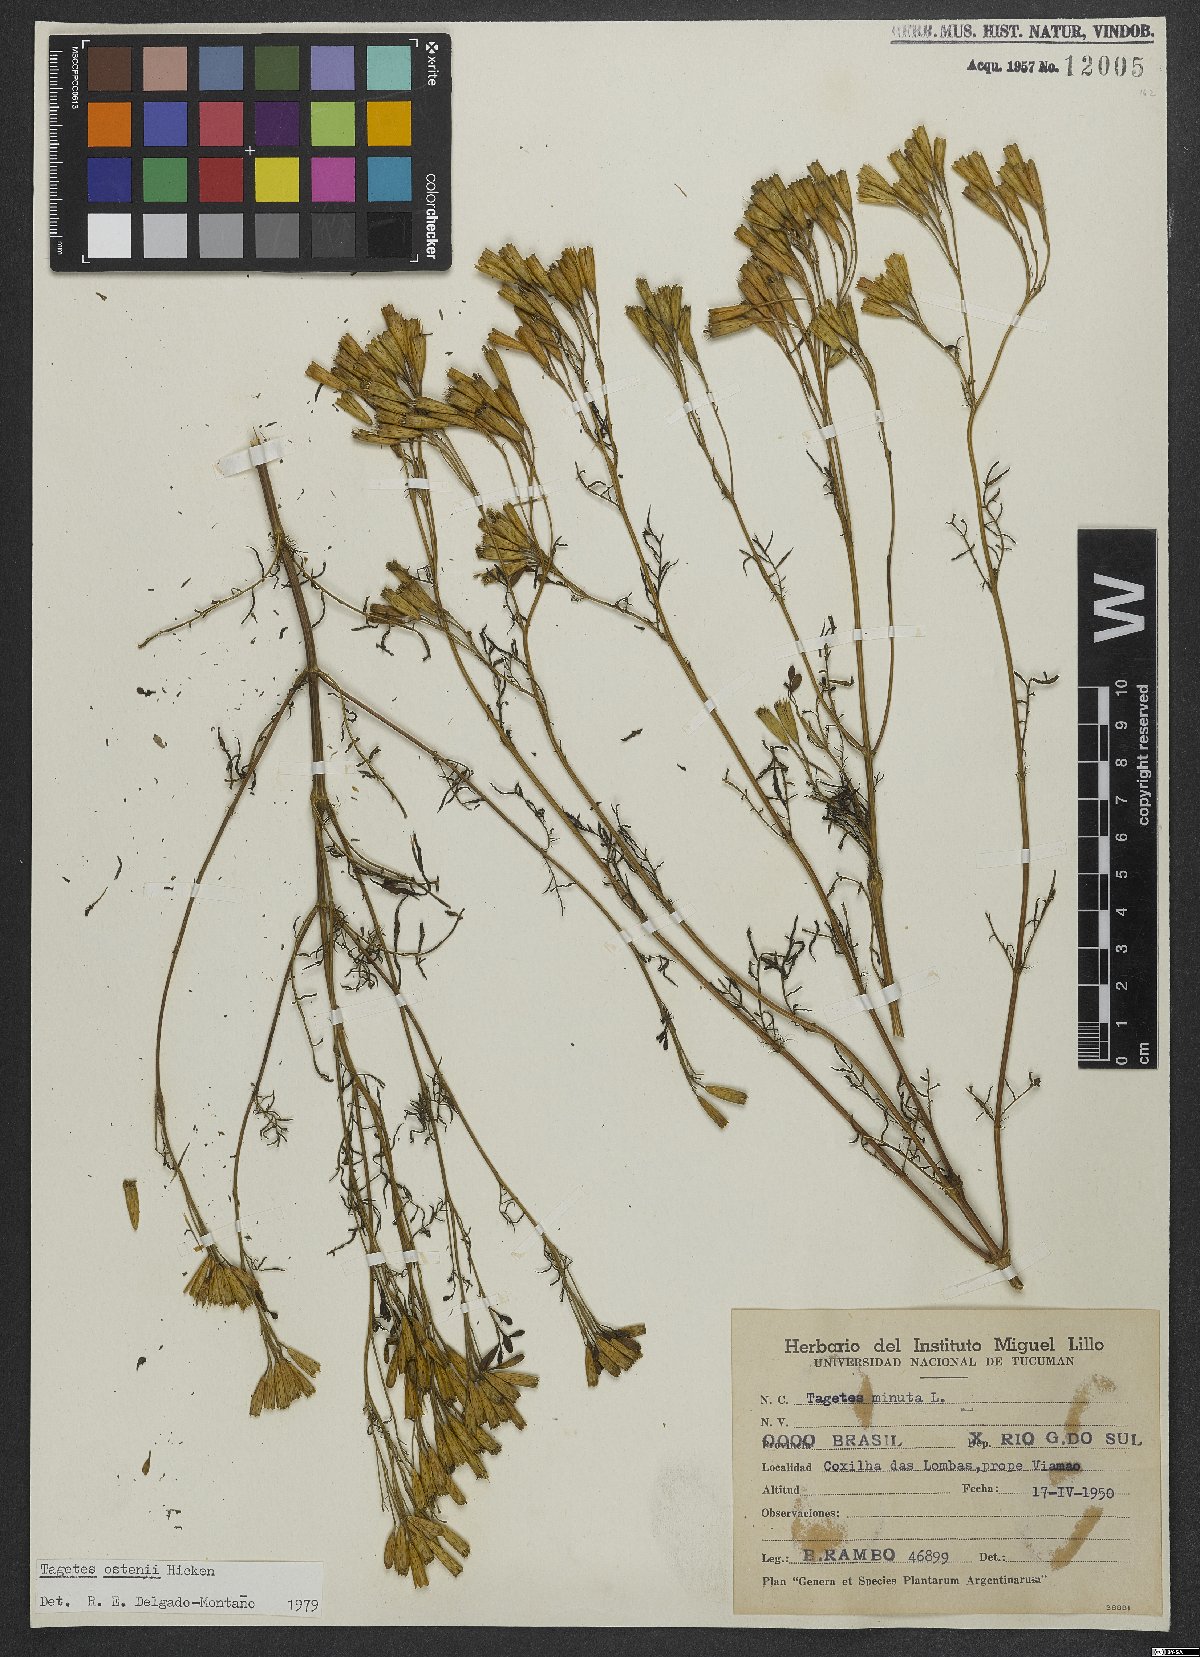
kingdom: Plantae
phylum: Tracheophyta
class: Magnoliopsida
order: Asterales
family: Asteraceae
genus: Tagetes
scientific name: Tagetes ostenii
